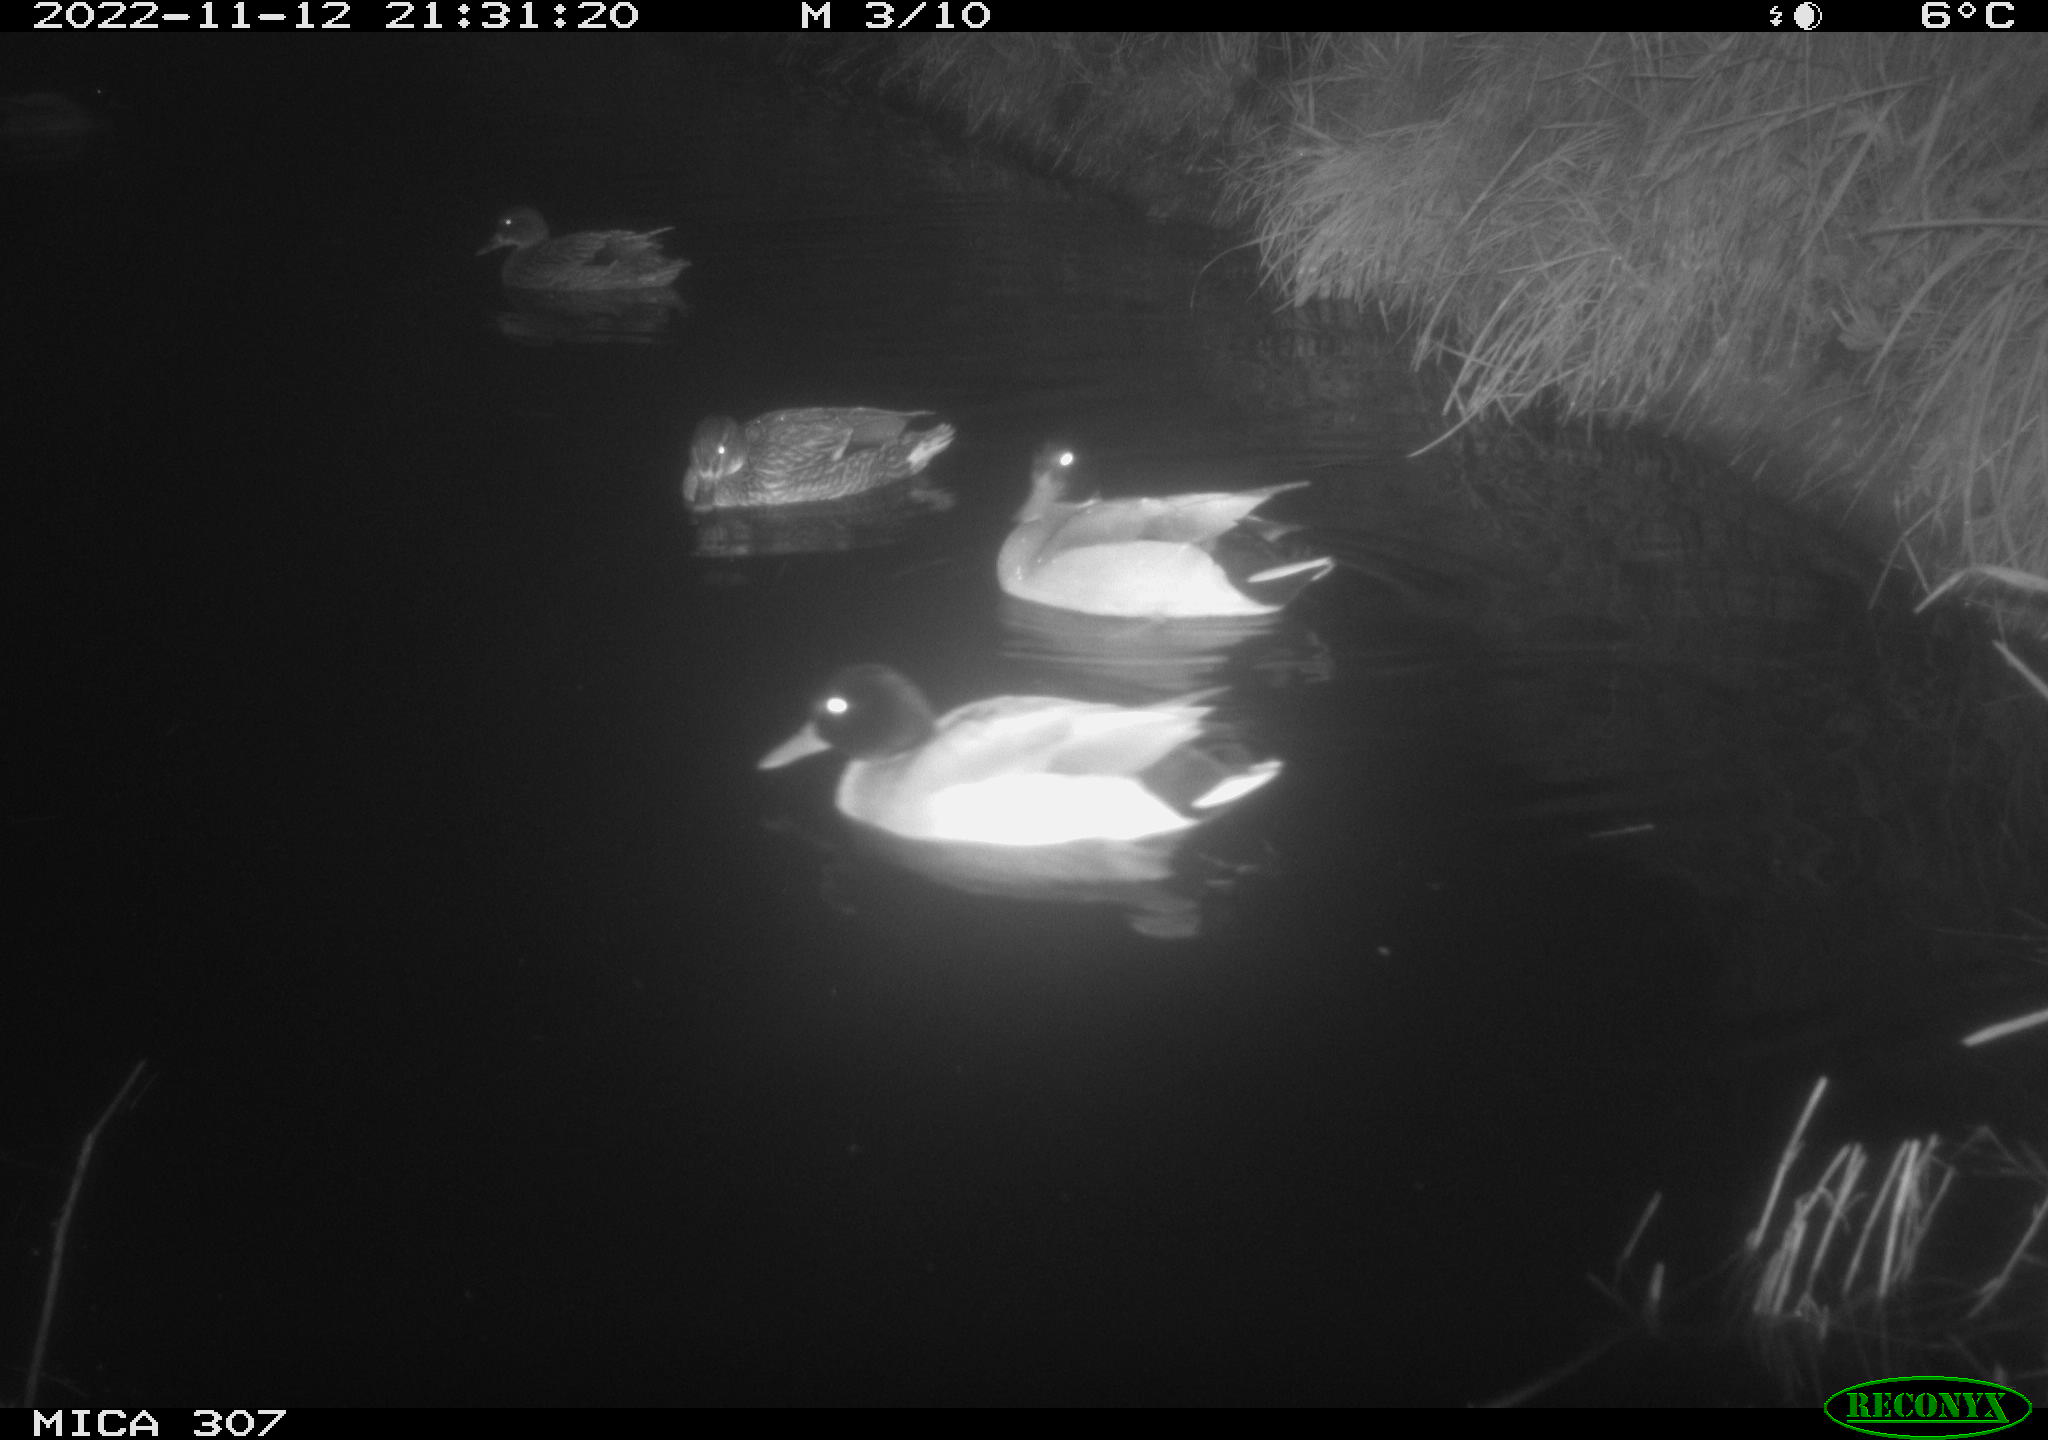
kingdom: Animalia
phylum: Chordata
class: Aves
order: Anseriformes
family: Anatidae
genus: Anas
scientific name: Anas
